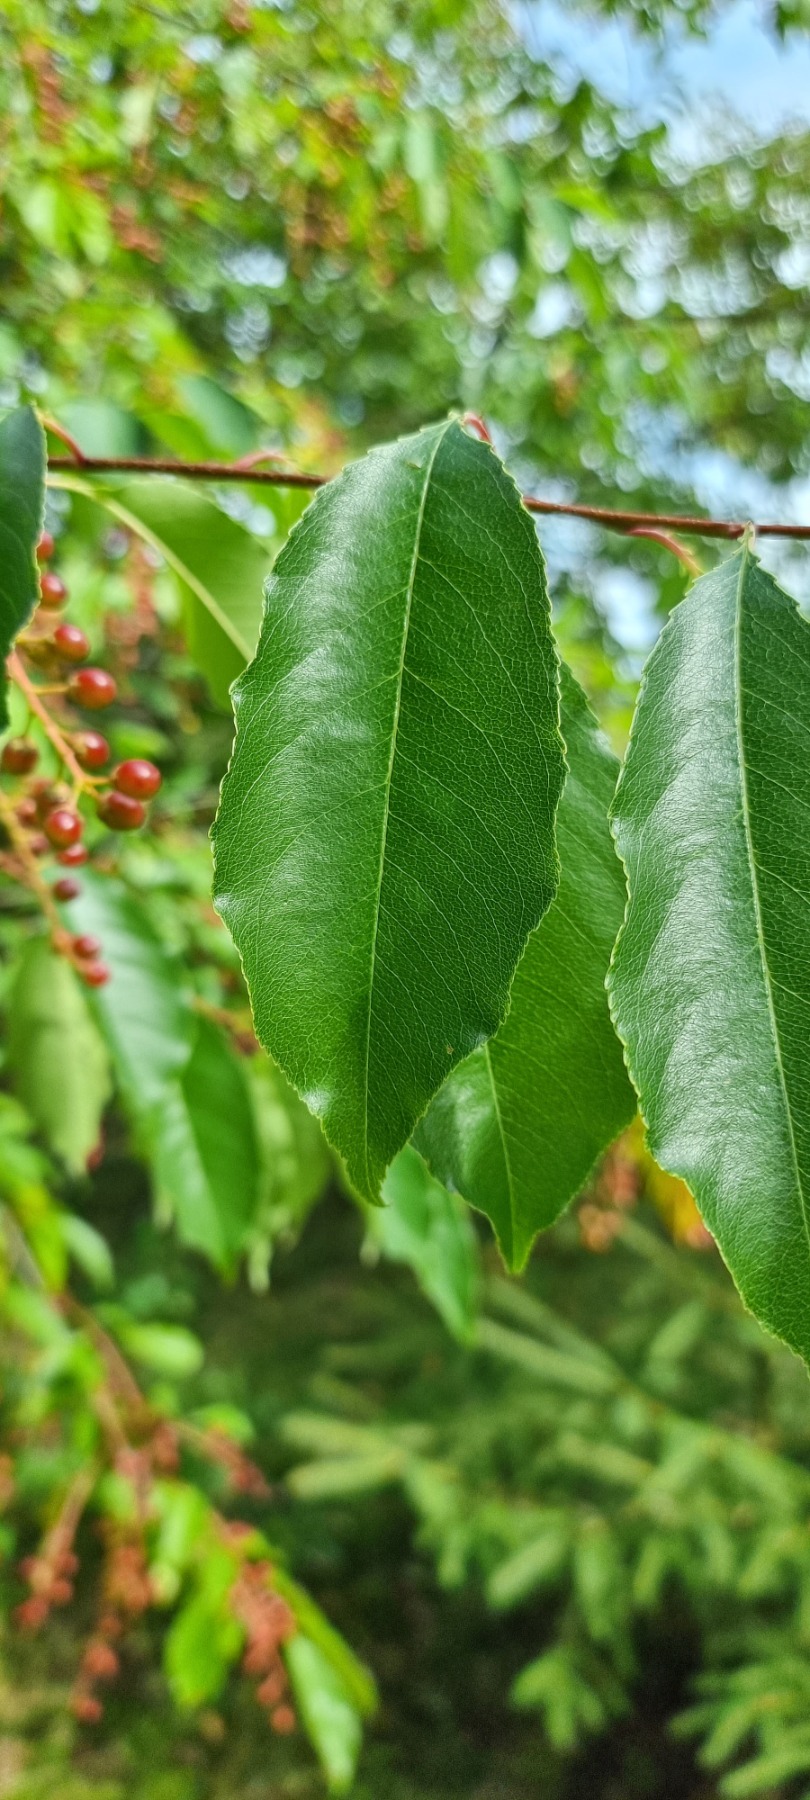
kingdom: Plantae
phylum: Tracheophyta
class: Magnoliopsida
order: Rosales
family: Rosaceae
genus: Prunus
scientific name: Prunus serotina
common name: Glansbladet hæg
